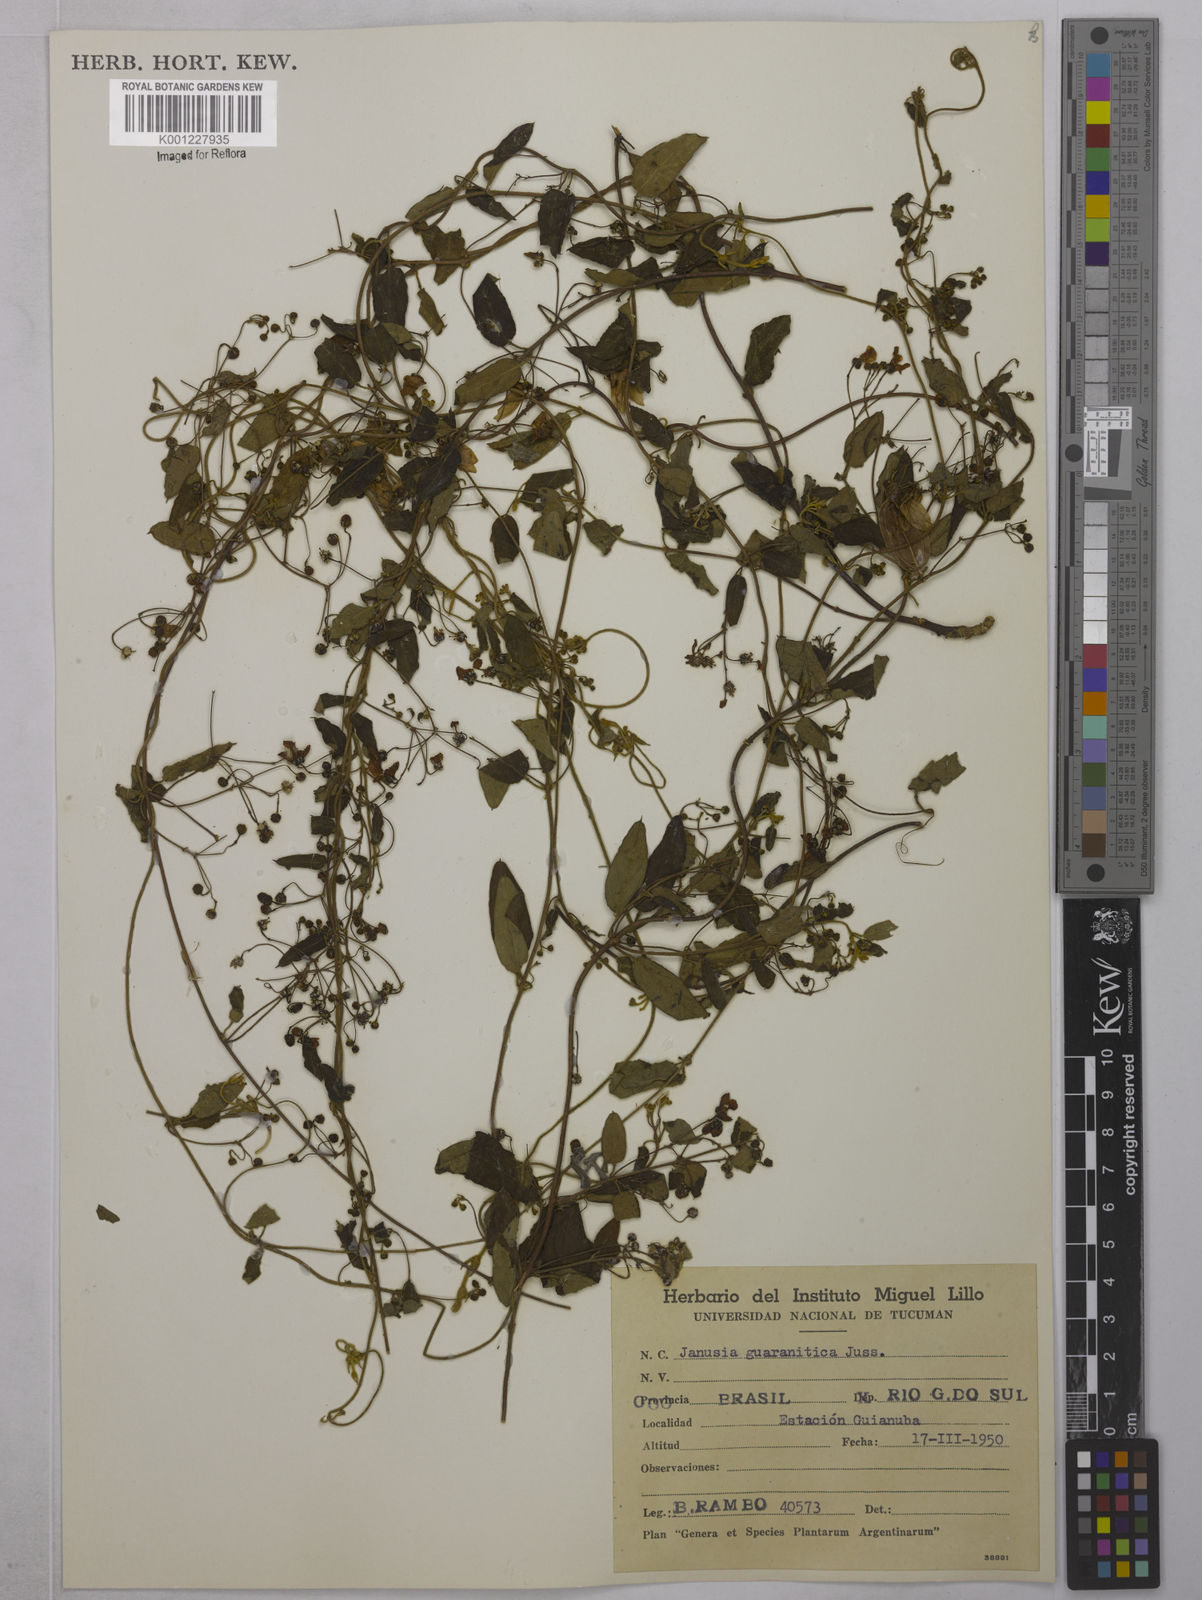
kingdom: Plantae
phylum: Tracheophyta
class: Magnoliopsida
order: Malpighiales
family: Malpighiaceae
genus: Janusia
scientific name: Janusia guaranitica
